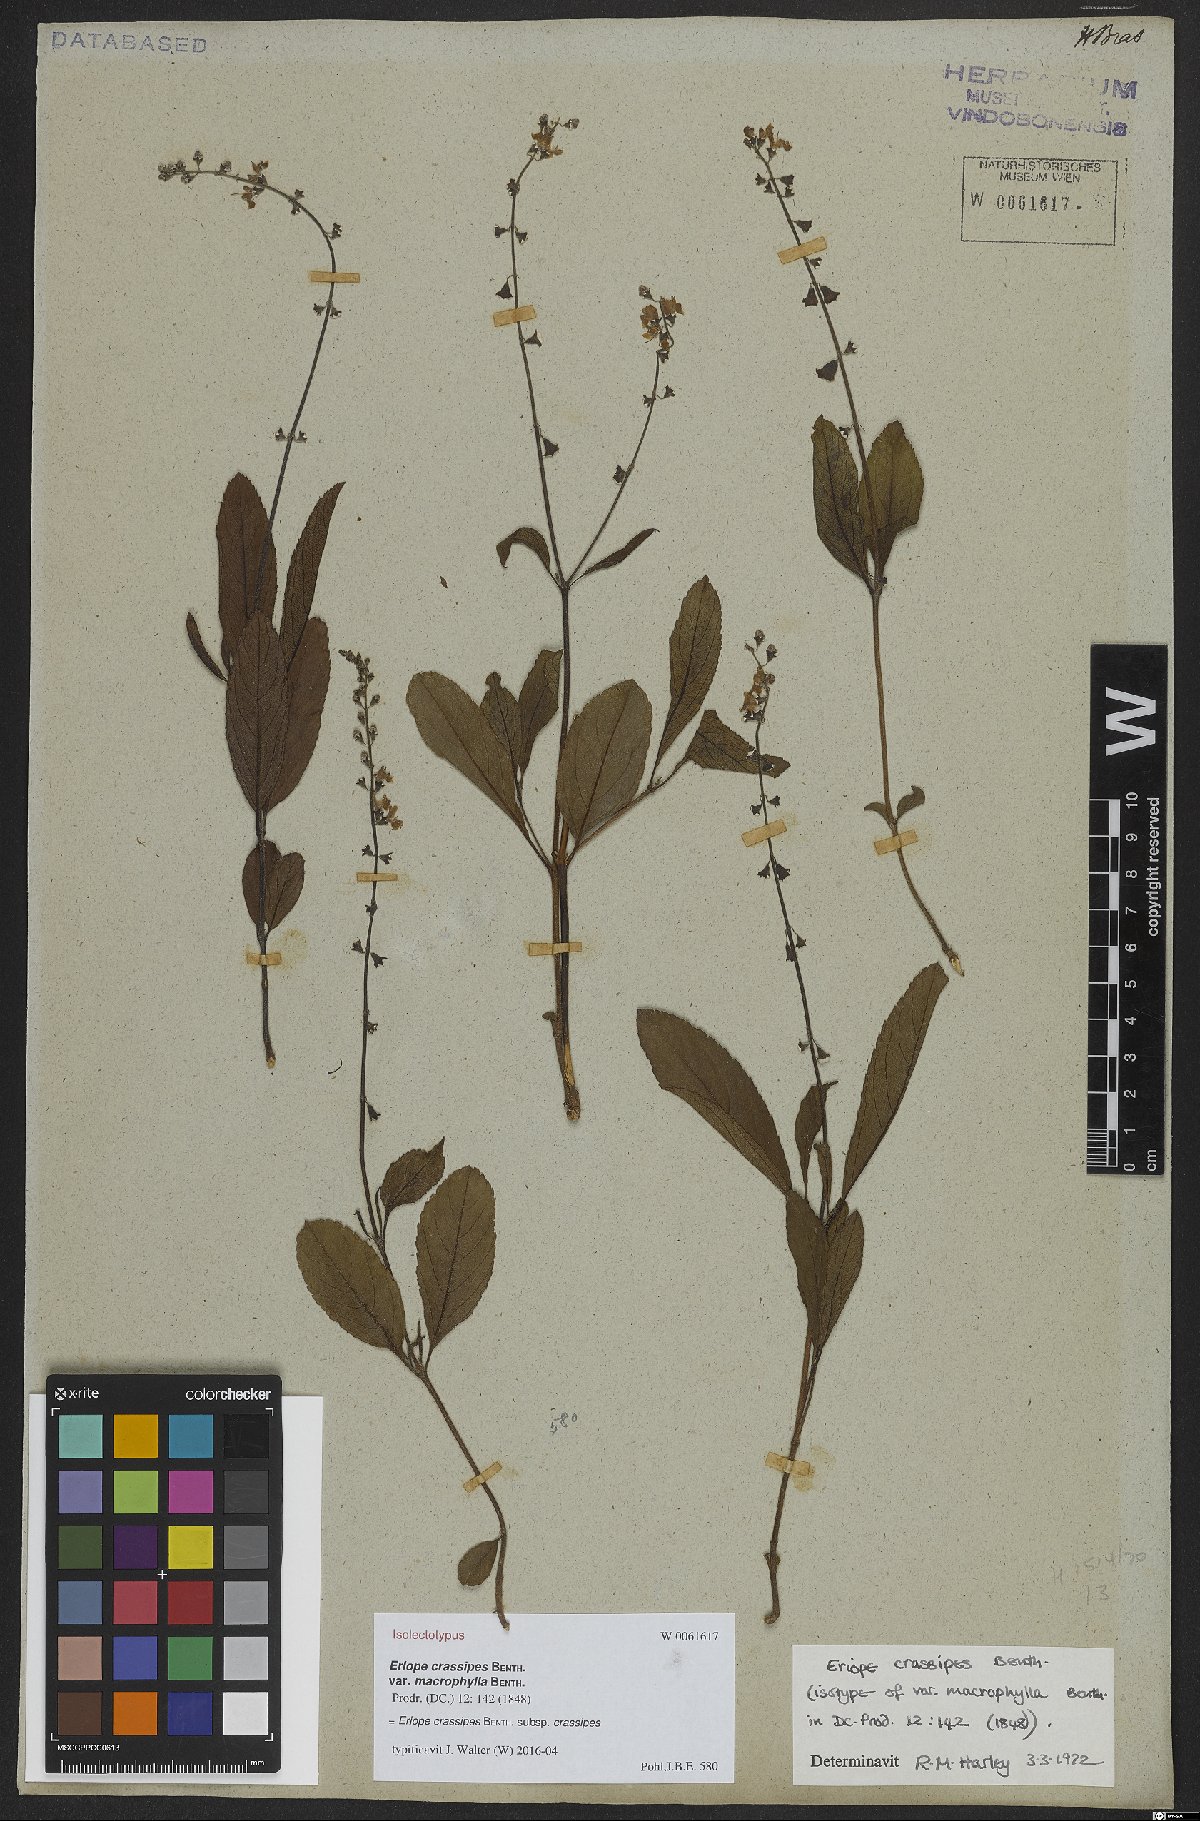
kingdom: Plantae
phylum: Tracheophyta
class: Magnoliopsida
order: Lamiales
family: Lamiaceae
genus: Eriope
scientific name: Eriope crassipes
